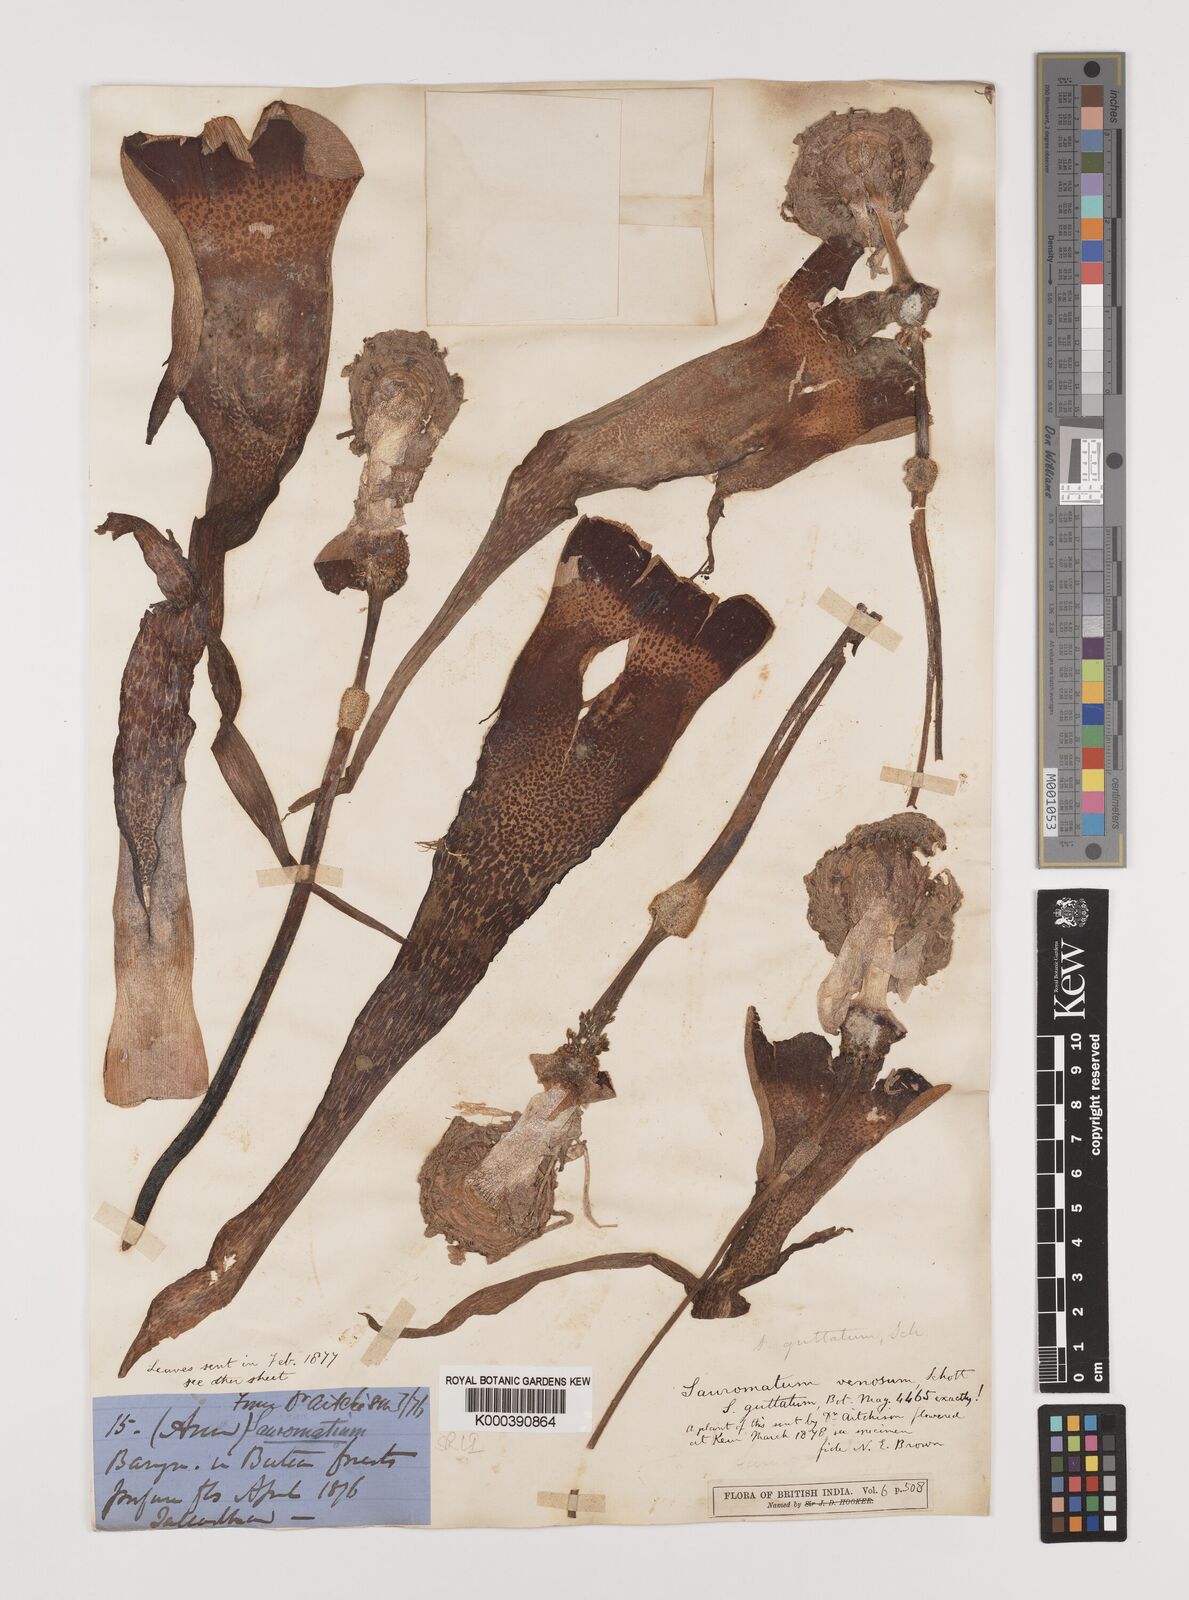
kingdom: Plantae
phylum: Tracheophyta
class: Liliopsida
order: Alismatales
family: Araceae
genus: Sauromatum
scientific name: Sauromatum venosum
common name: Voodoo lily
